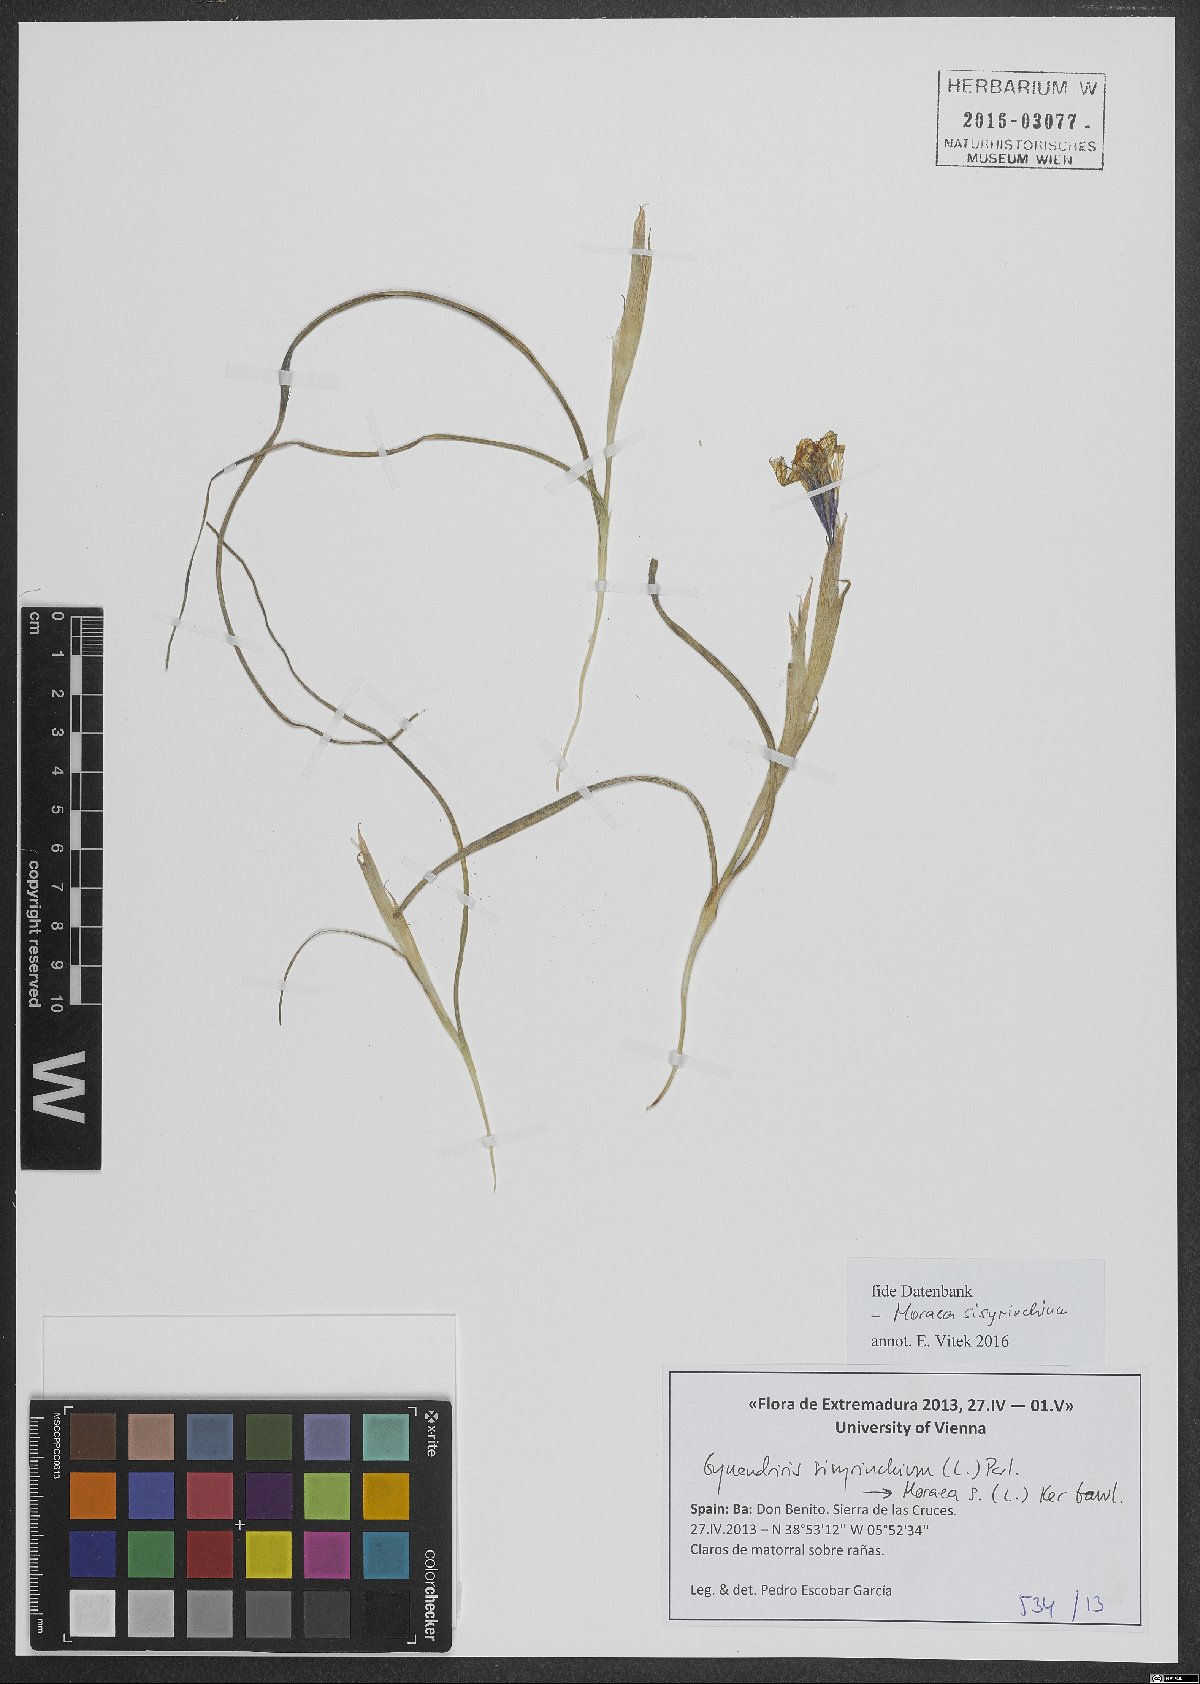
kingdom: Plantae
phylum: Tracheophyta
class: Liliopsida
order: Asparagales
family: Iridaceae
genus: Moraea
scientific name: Moraea sisyrinchium
